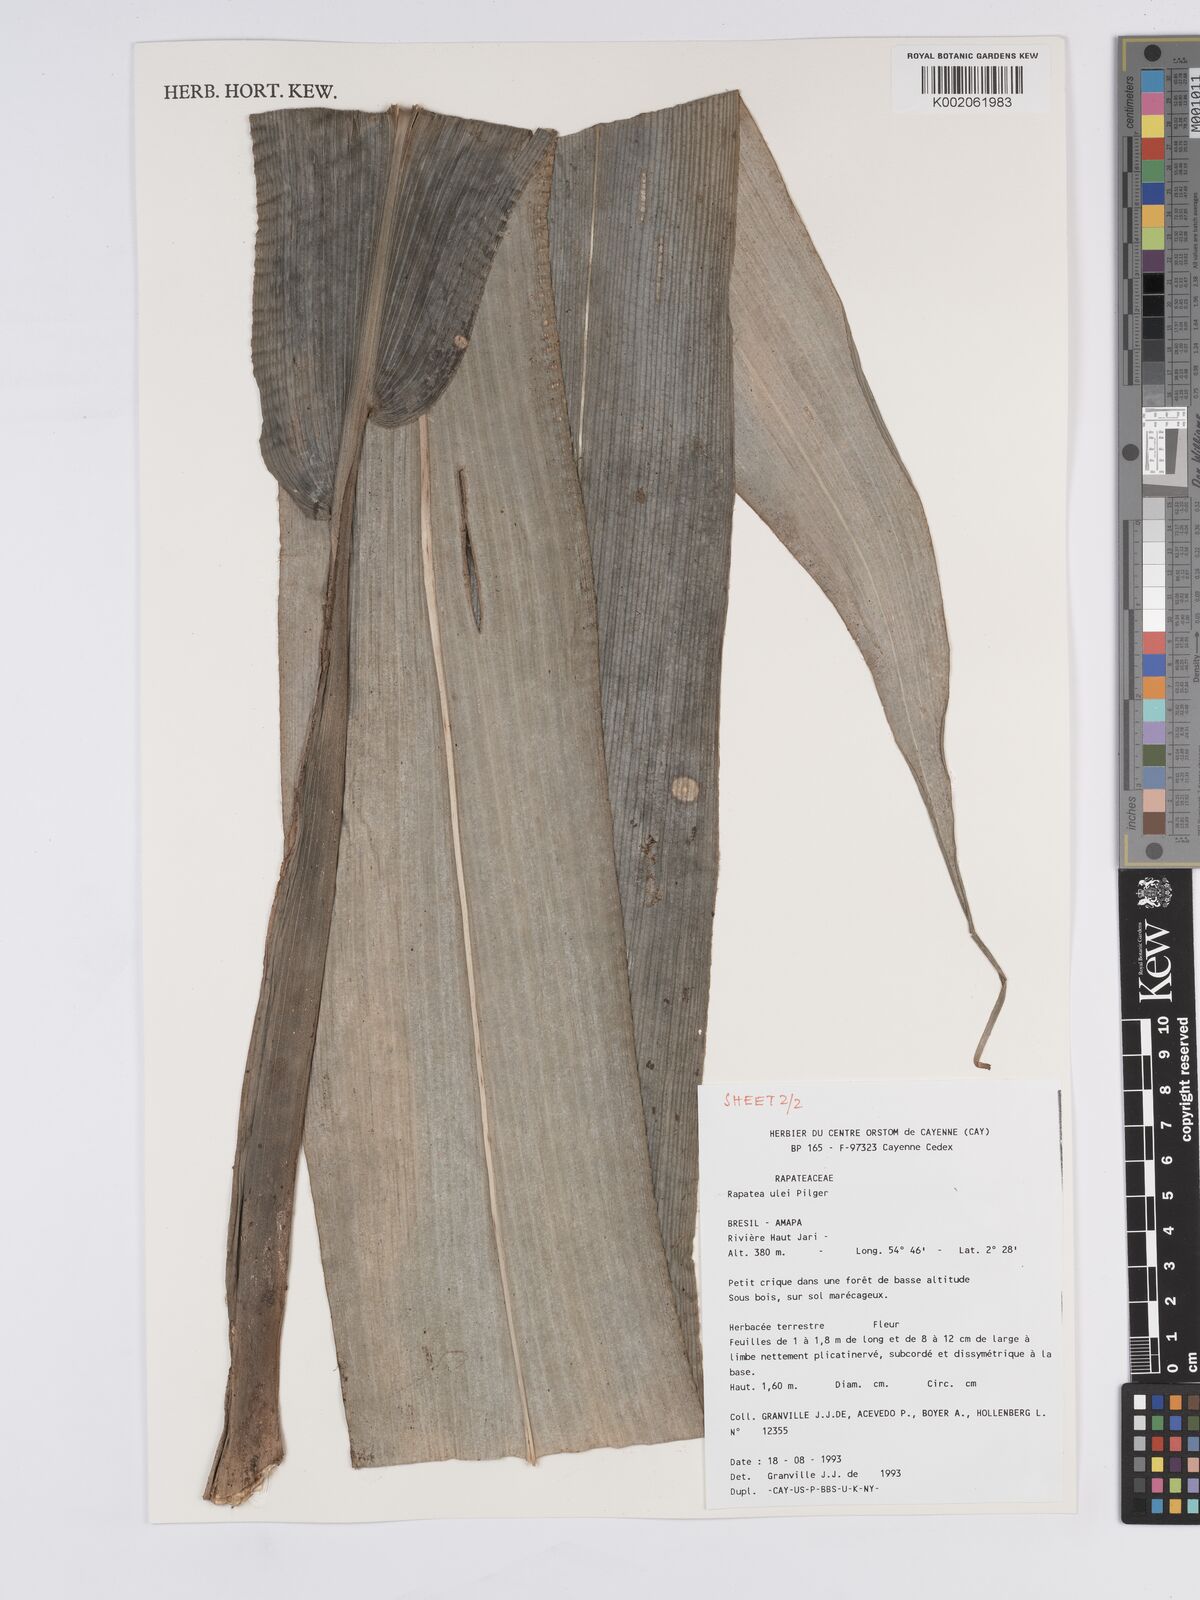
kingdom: Plantae
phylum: Tracheophyta
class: Liliopsida
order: Poales
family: Rapateaceae
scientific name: Rapateaceae
